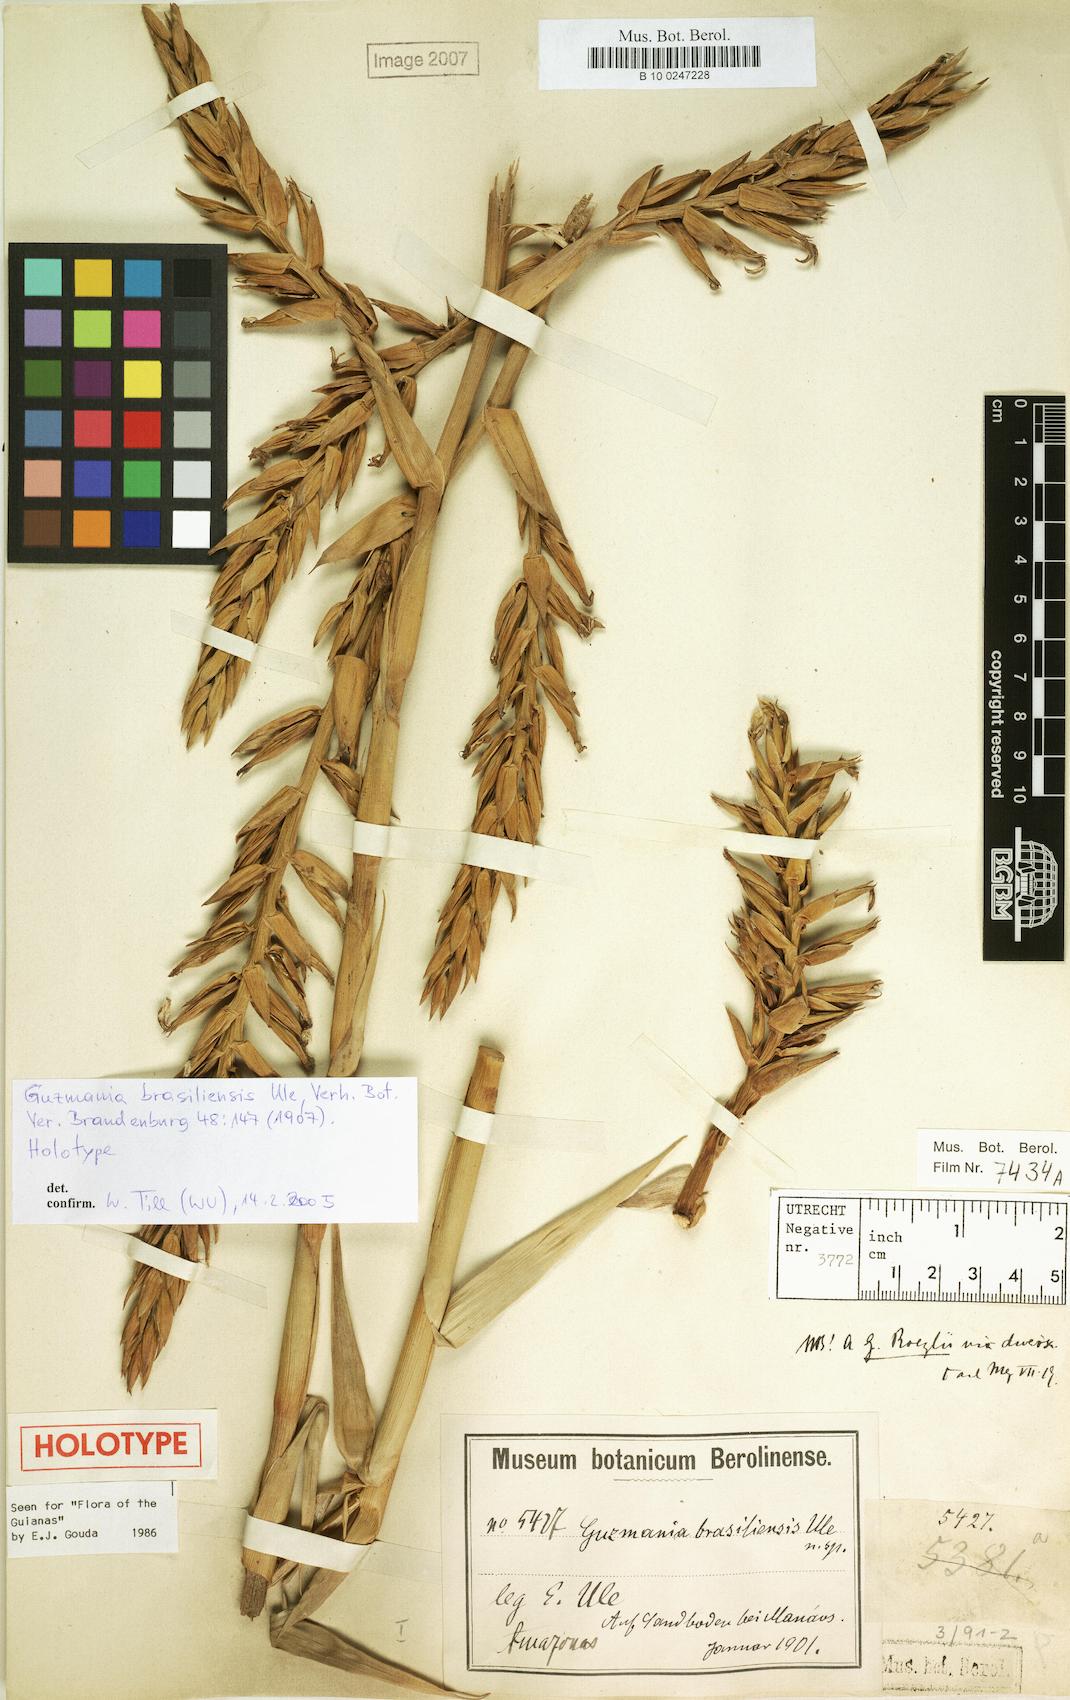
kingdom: Plantae
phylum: Tracheophyta
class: Liliopsida
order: Poales
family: Bromeliaceae
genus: Guzmania
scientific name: Guzmania brasiliensis
